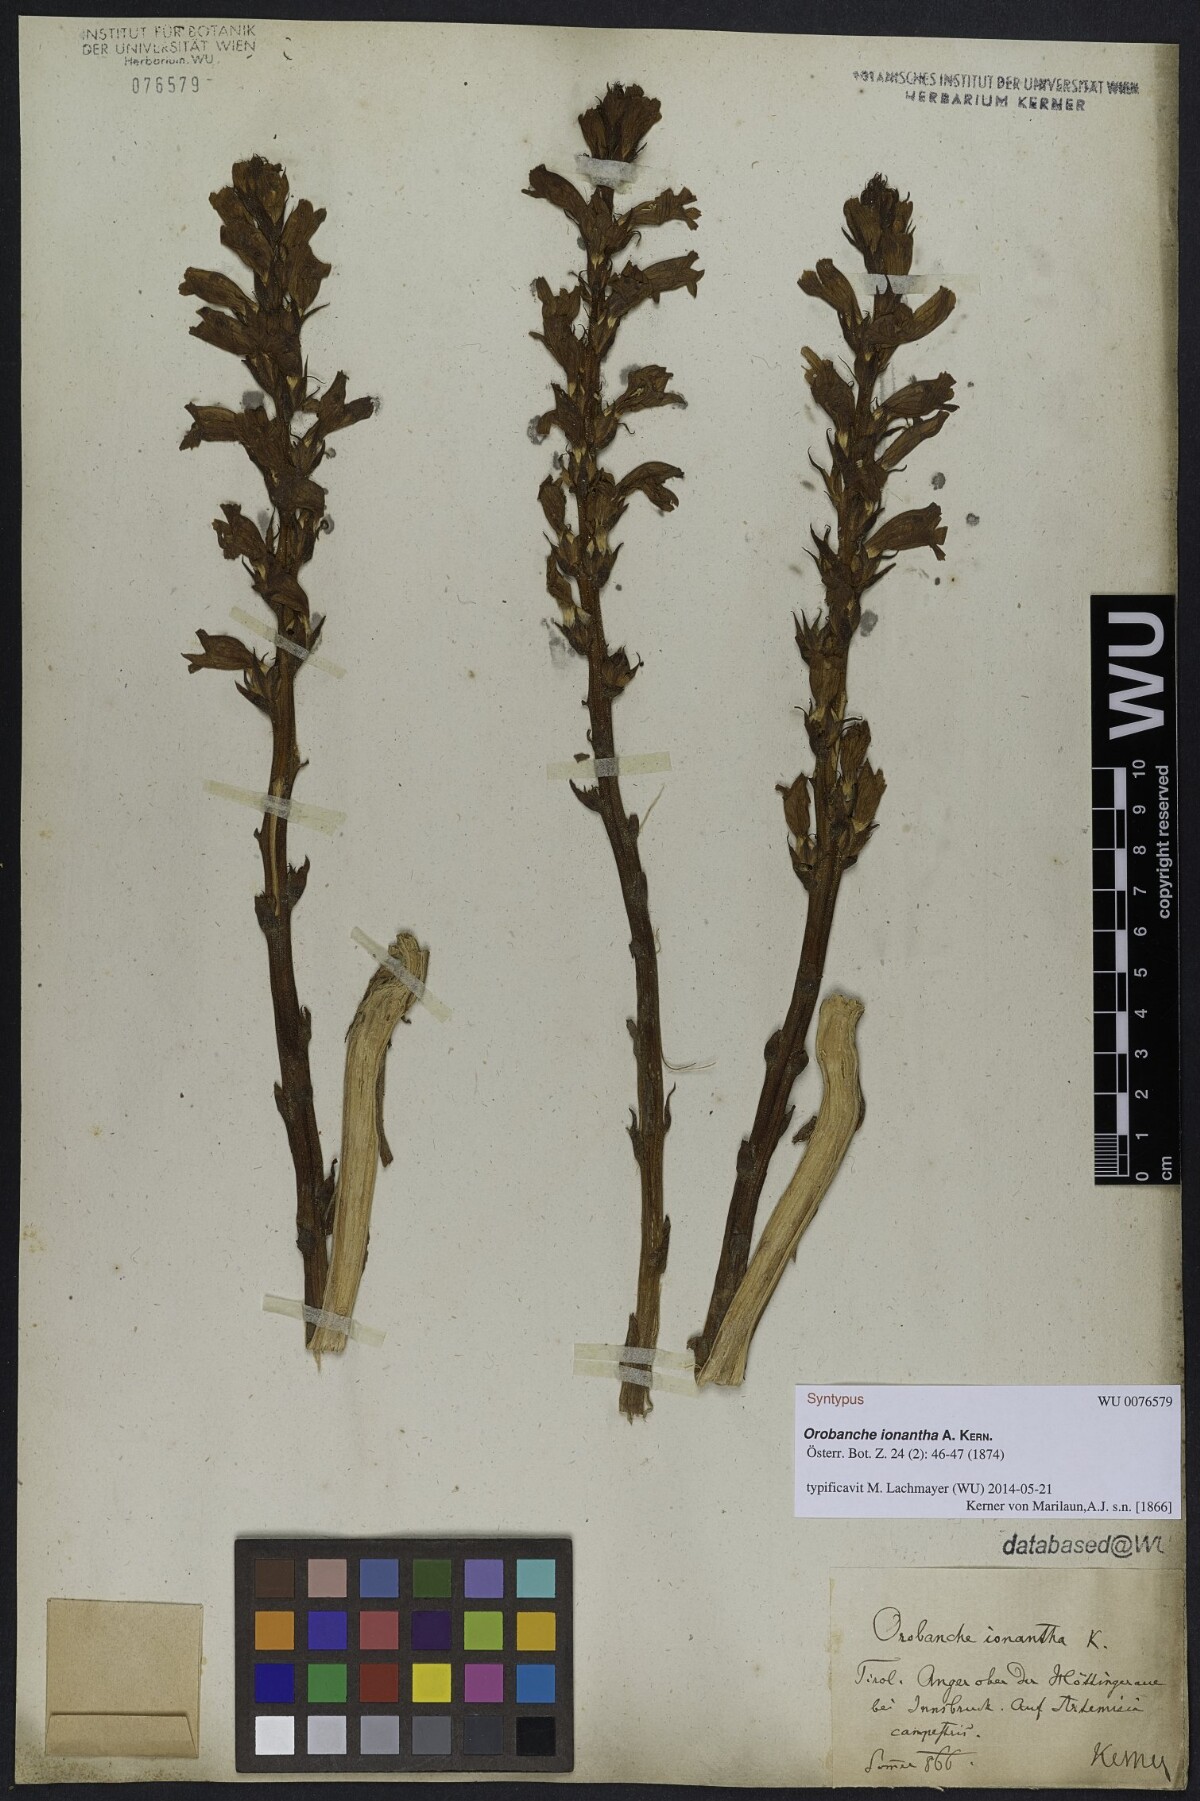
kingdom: Plantae
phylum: Tracheophyta
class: Magnoliopsida
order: Lamiales
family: Orobanchaceae
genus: Phelipanche
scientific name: Phelipanche arenaria
